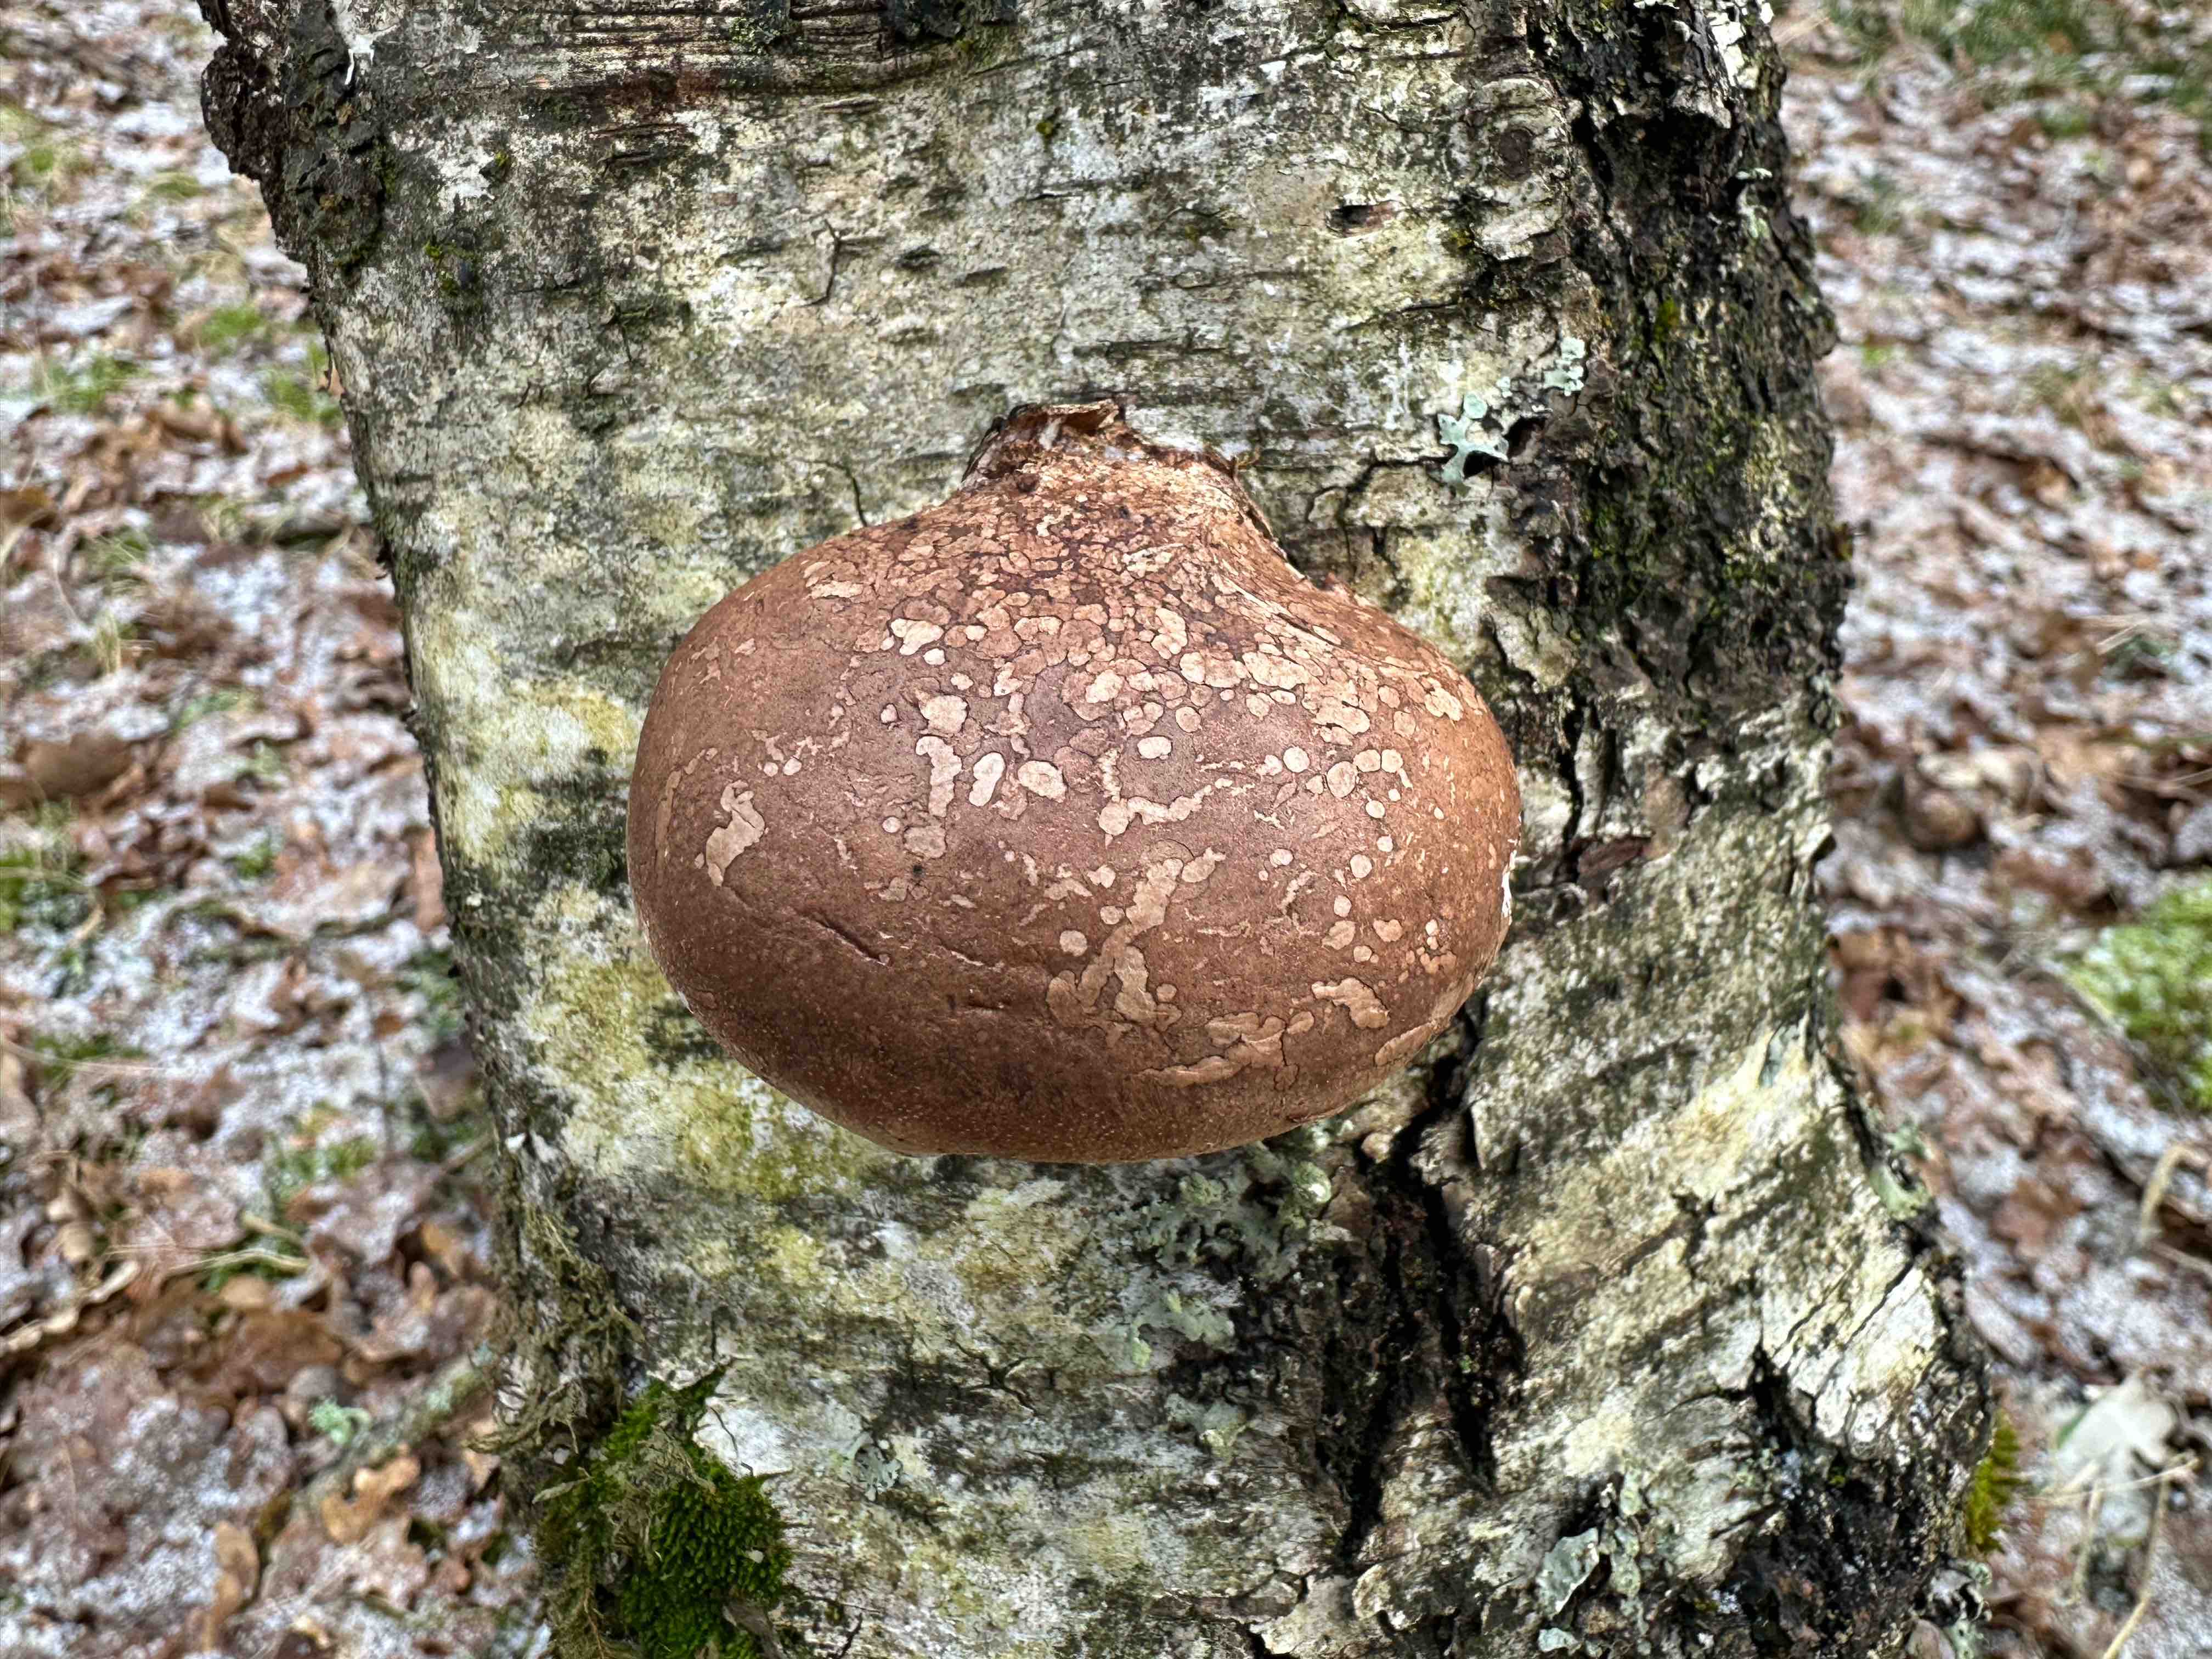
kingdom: Fungi
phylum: Basidiomycota
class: Agaricomycetes
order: Polyporales
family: Fomitopsidaceae
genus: Fomitopsis
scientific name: Fomitopsis betulina
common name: birkeporesvamp
